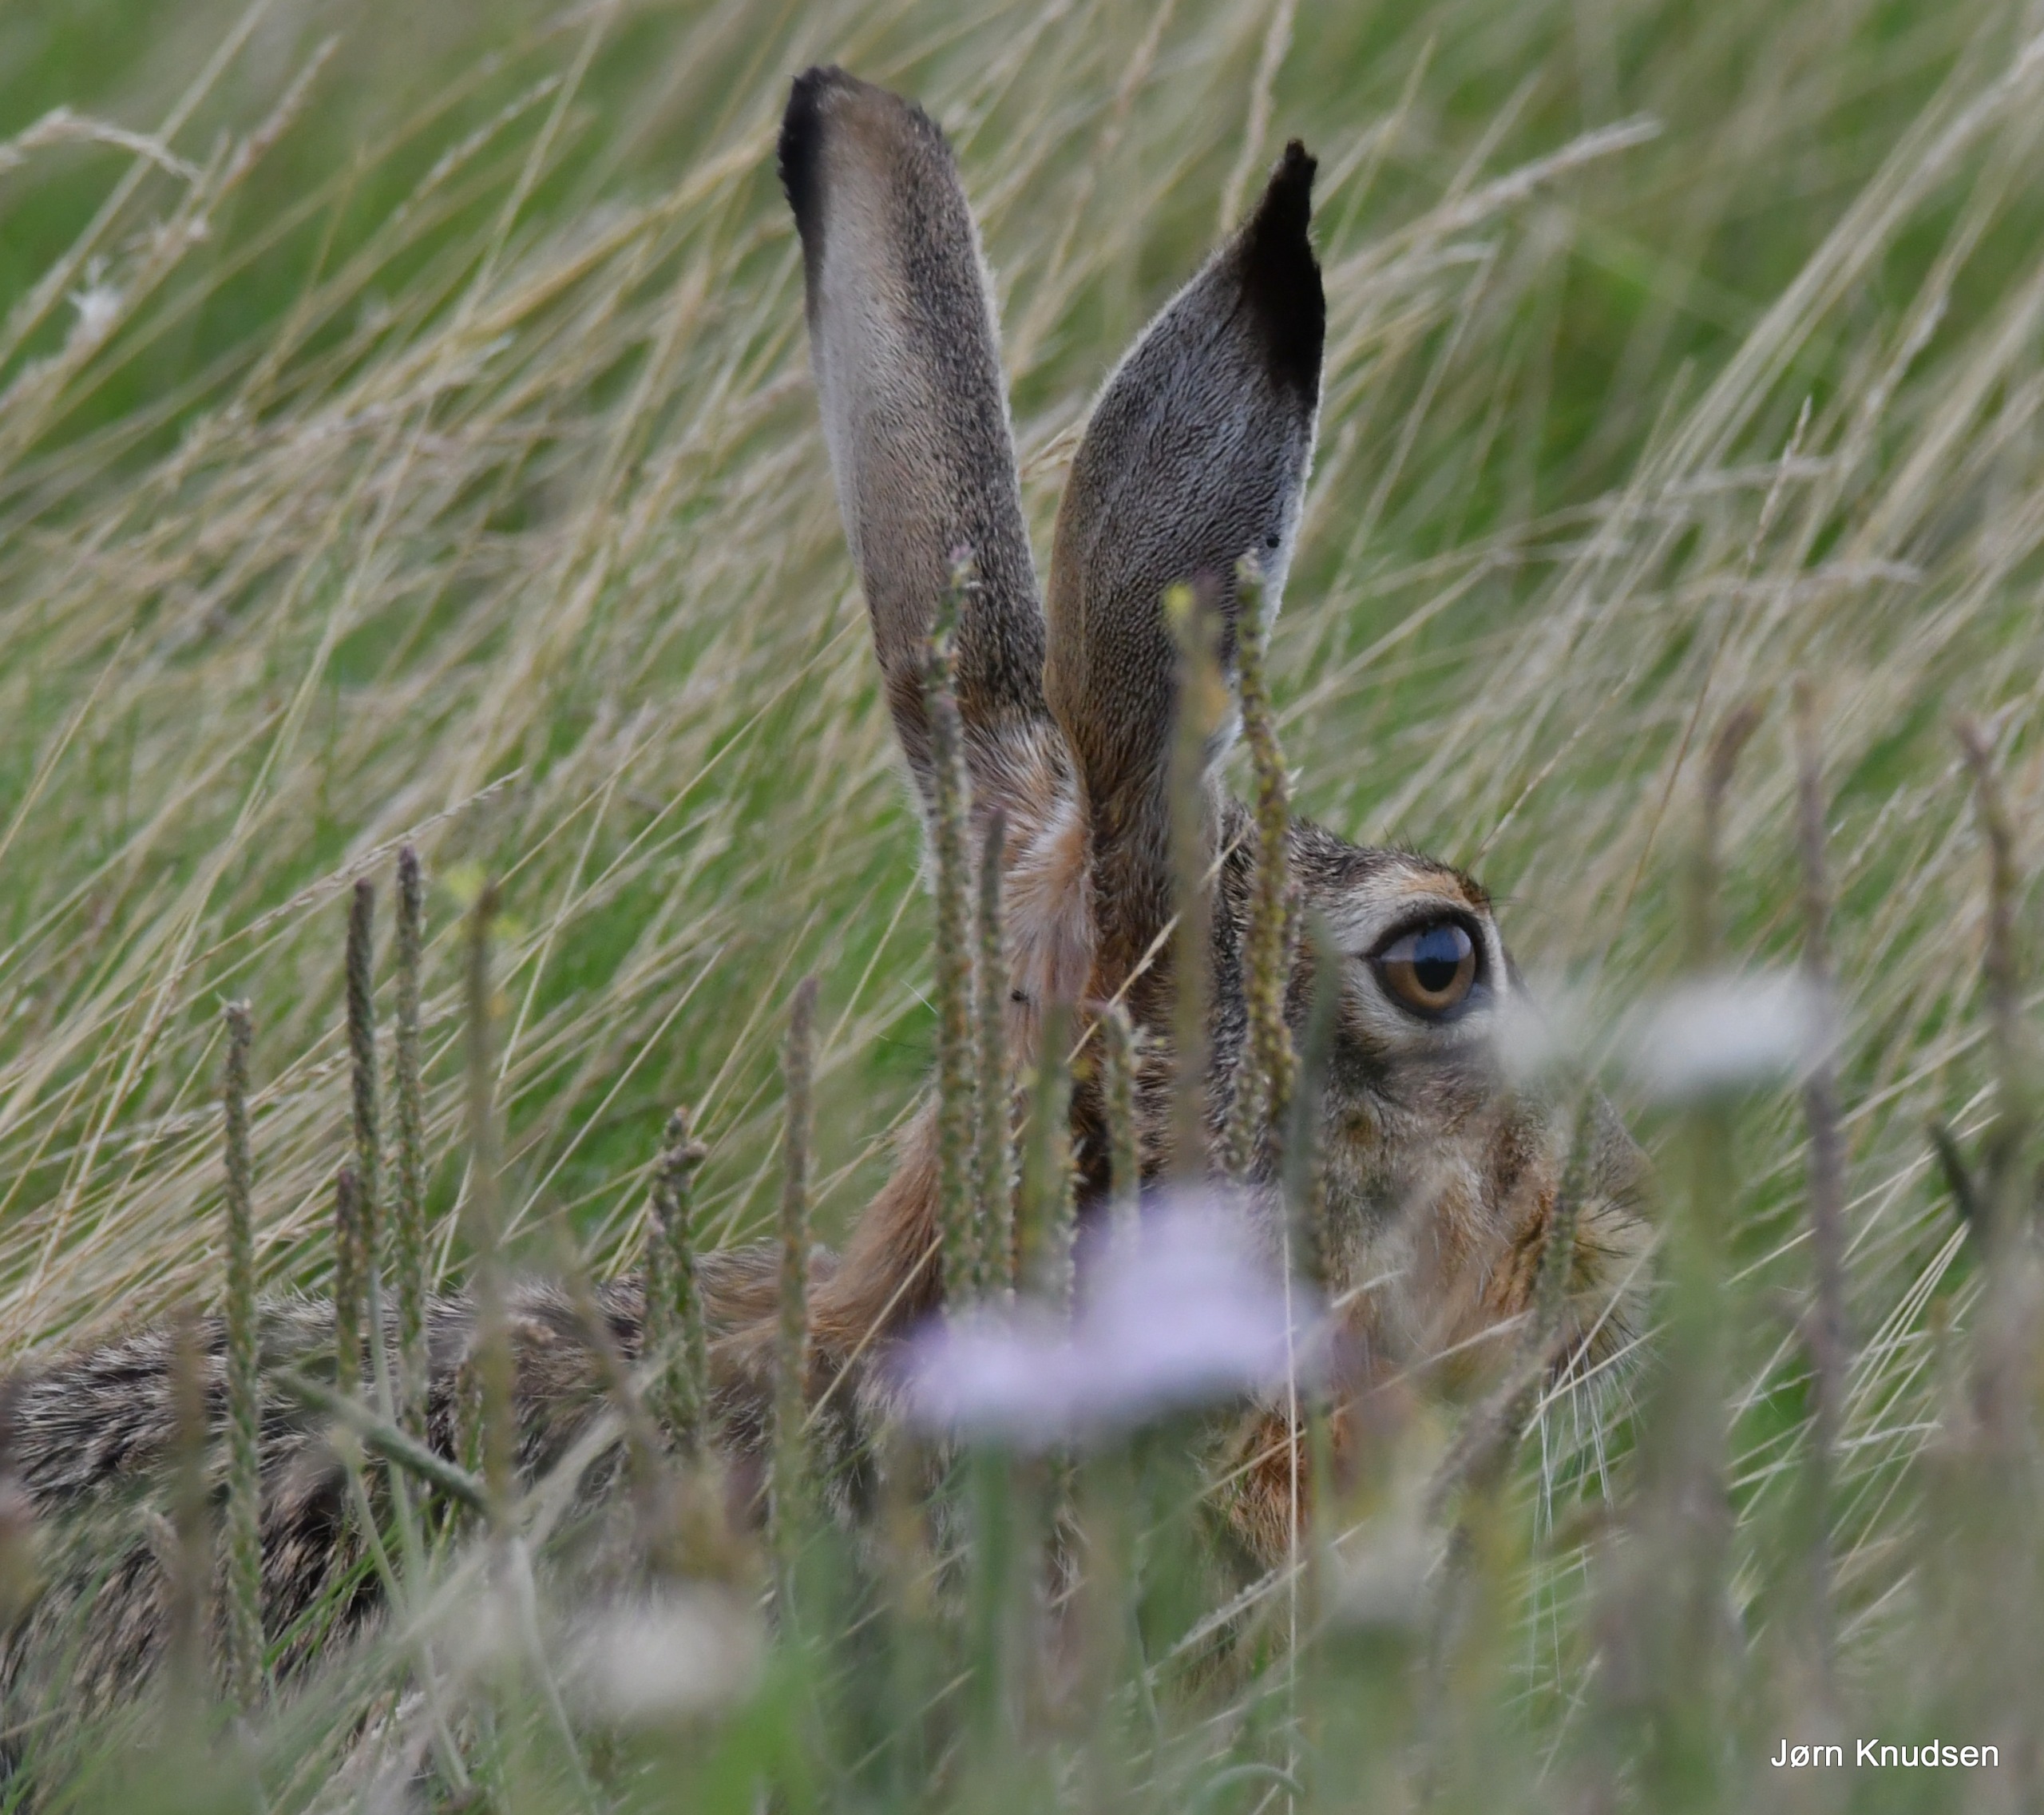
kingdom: Animalia
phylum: Chordata
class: Mammalia
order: Lagomorpha
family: Leporidae
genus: Lepus
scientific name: Lepus europaeus
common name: Hare
